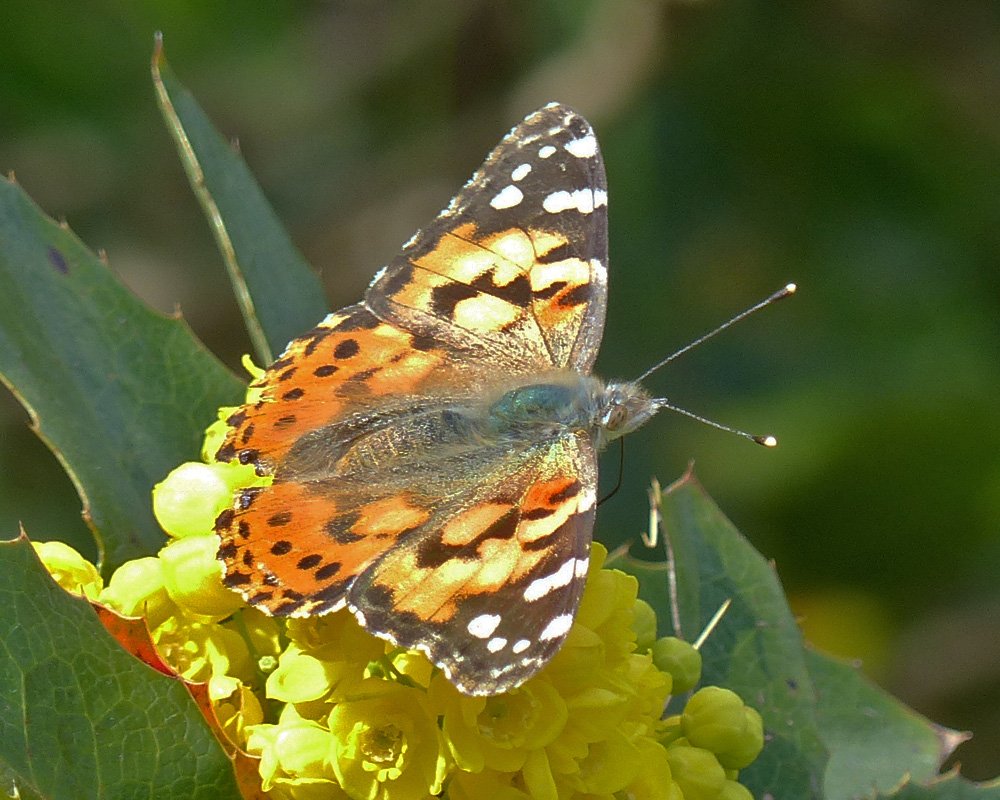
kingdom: Animalia
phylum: Arthropoda
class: Insecta
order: Lepidoptera
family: Nymphalidae
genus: Vanessa
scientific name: Vanessa cardui
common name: Painted Lady
